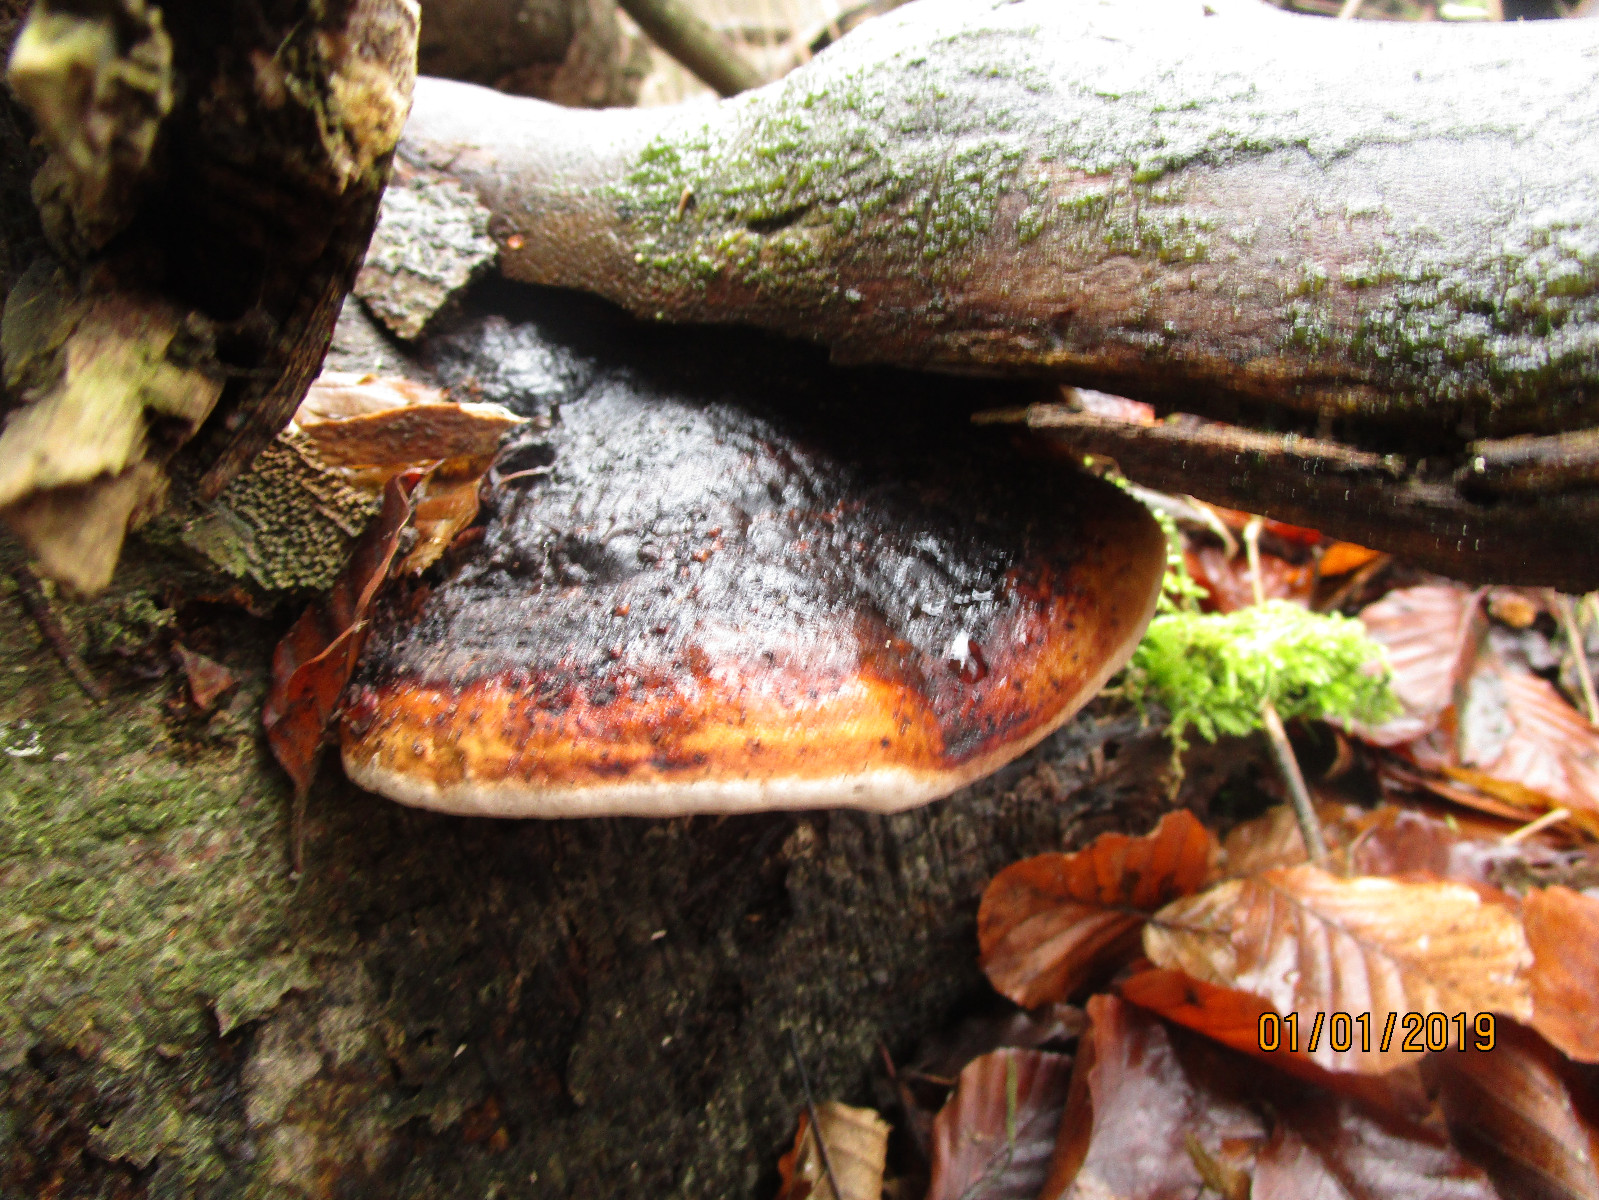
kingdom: Fungi
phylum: Basidiomycota
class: Agaricomycetes
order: Polyporales
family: Fomitopsidaceae
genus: Fomitopsis
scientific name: Fomitopsis pinicola
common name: randbæltet hovporesvamp
